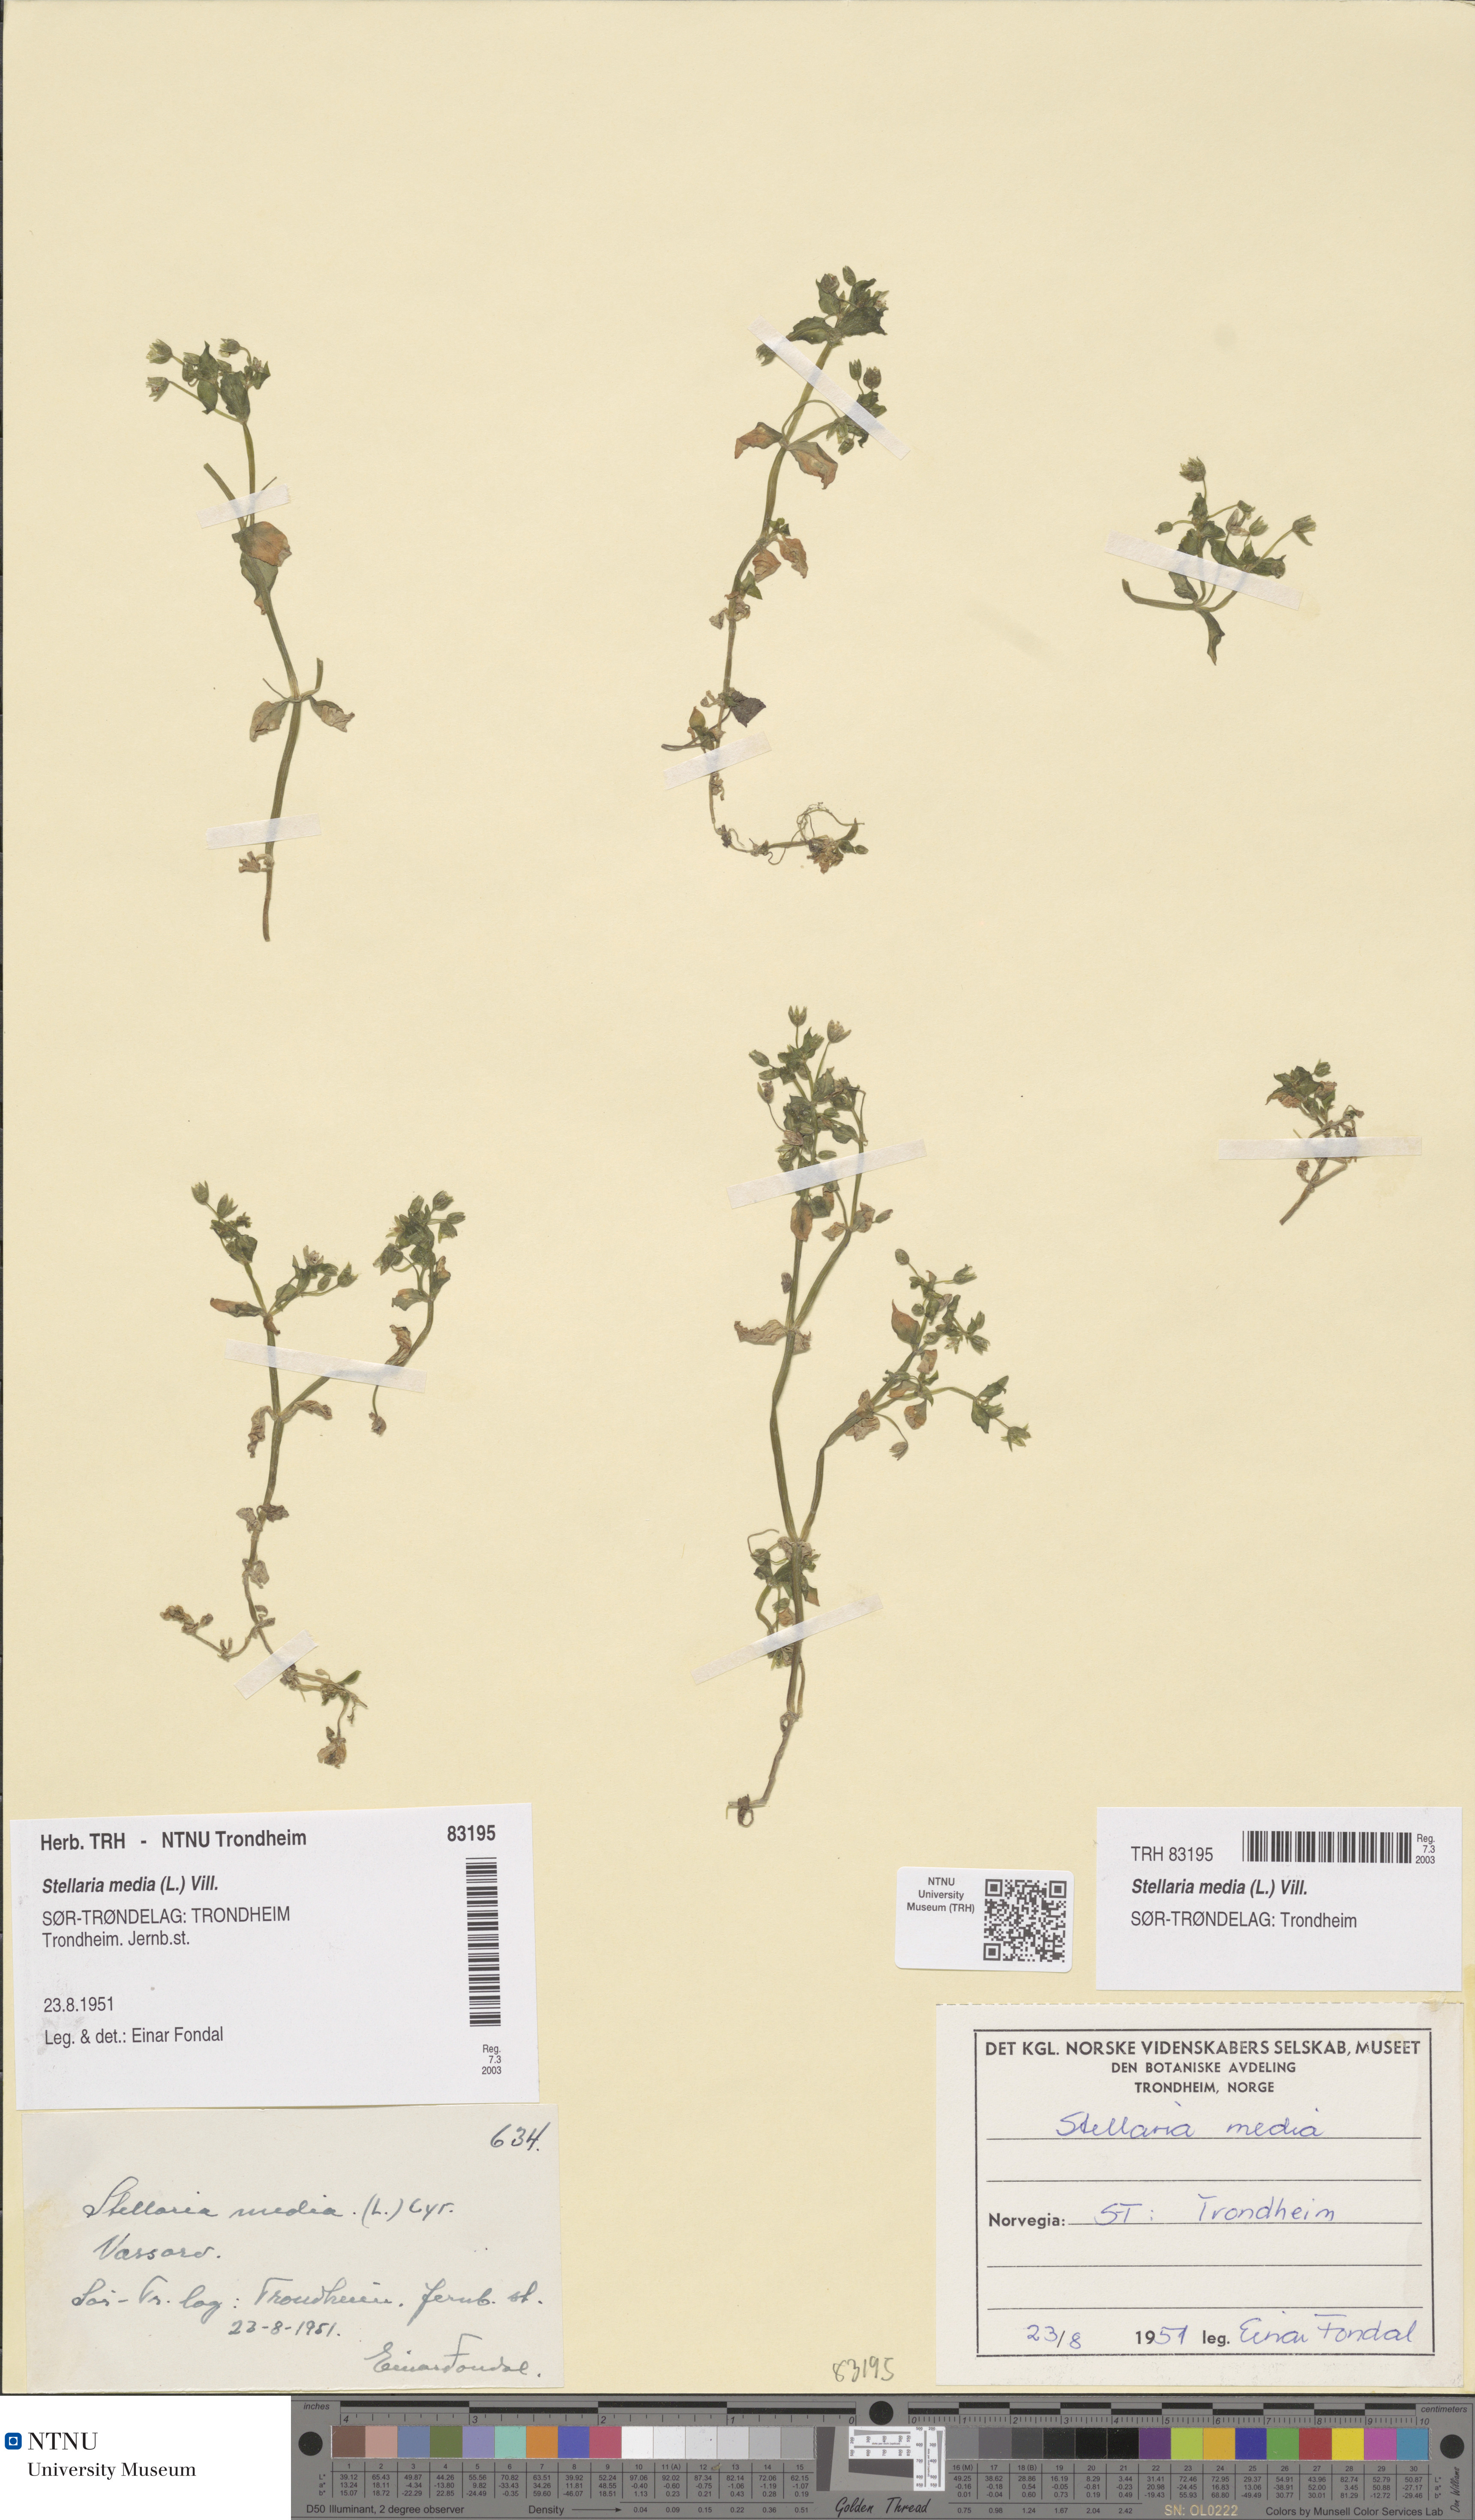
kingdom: Plantae
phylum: Tracheophyta
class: Magnoliopsida
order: Caryophyllales
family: Caryophyllaceae
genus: Stellaria
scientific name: Stellaria media
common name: Common chickweed
